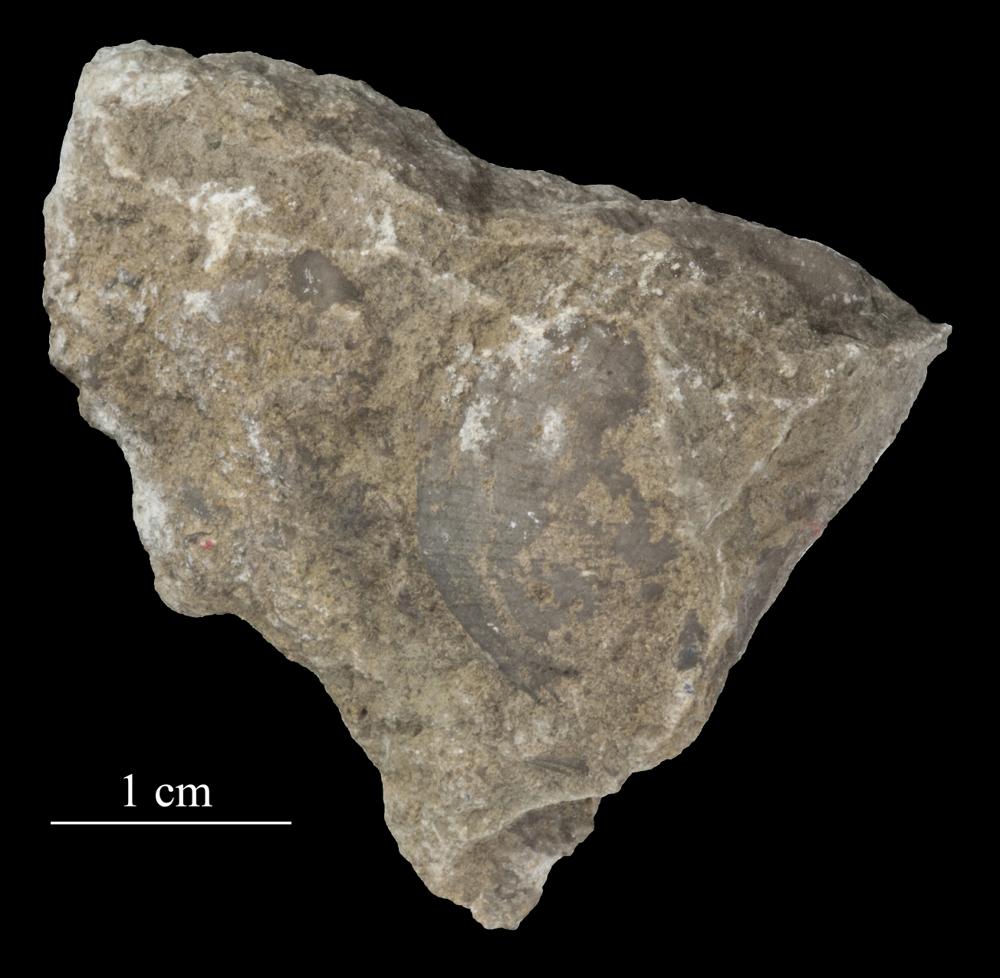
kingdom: Animalia
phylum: Brachiopoda
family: Strophomenidae
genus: Tallinnites
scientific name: Tallinnites Oepikina imbrexoidea
